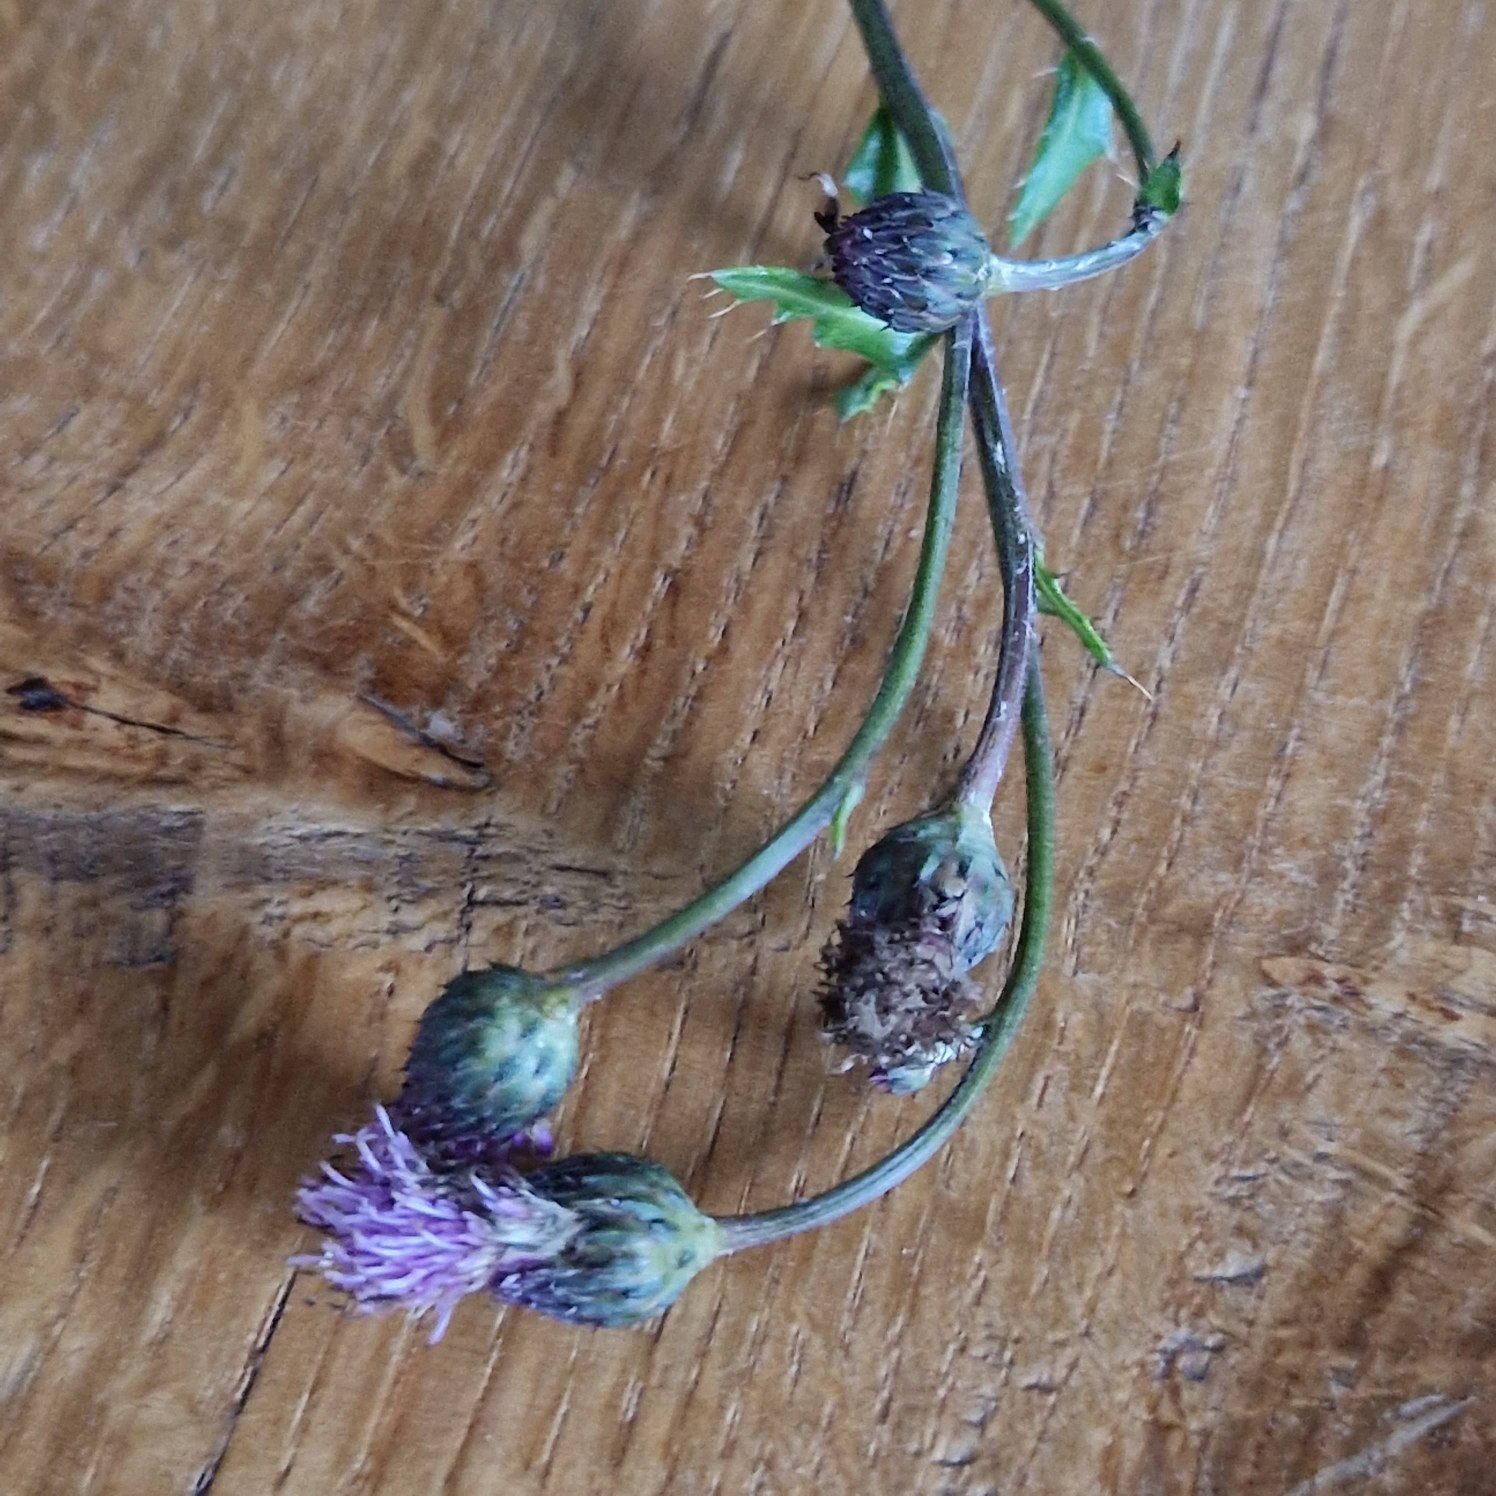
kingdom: Plantae
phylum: Tracheophyta
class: Magnoliopsida
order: Asterales
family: Asteraceae
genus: Cirsium
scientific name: Cirsium arvense
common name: Ager-tidsel
